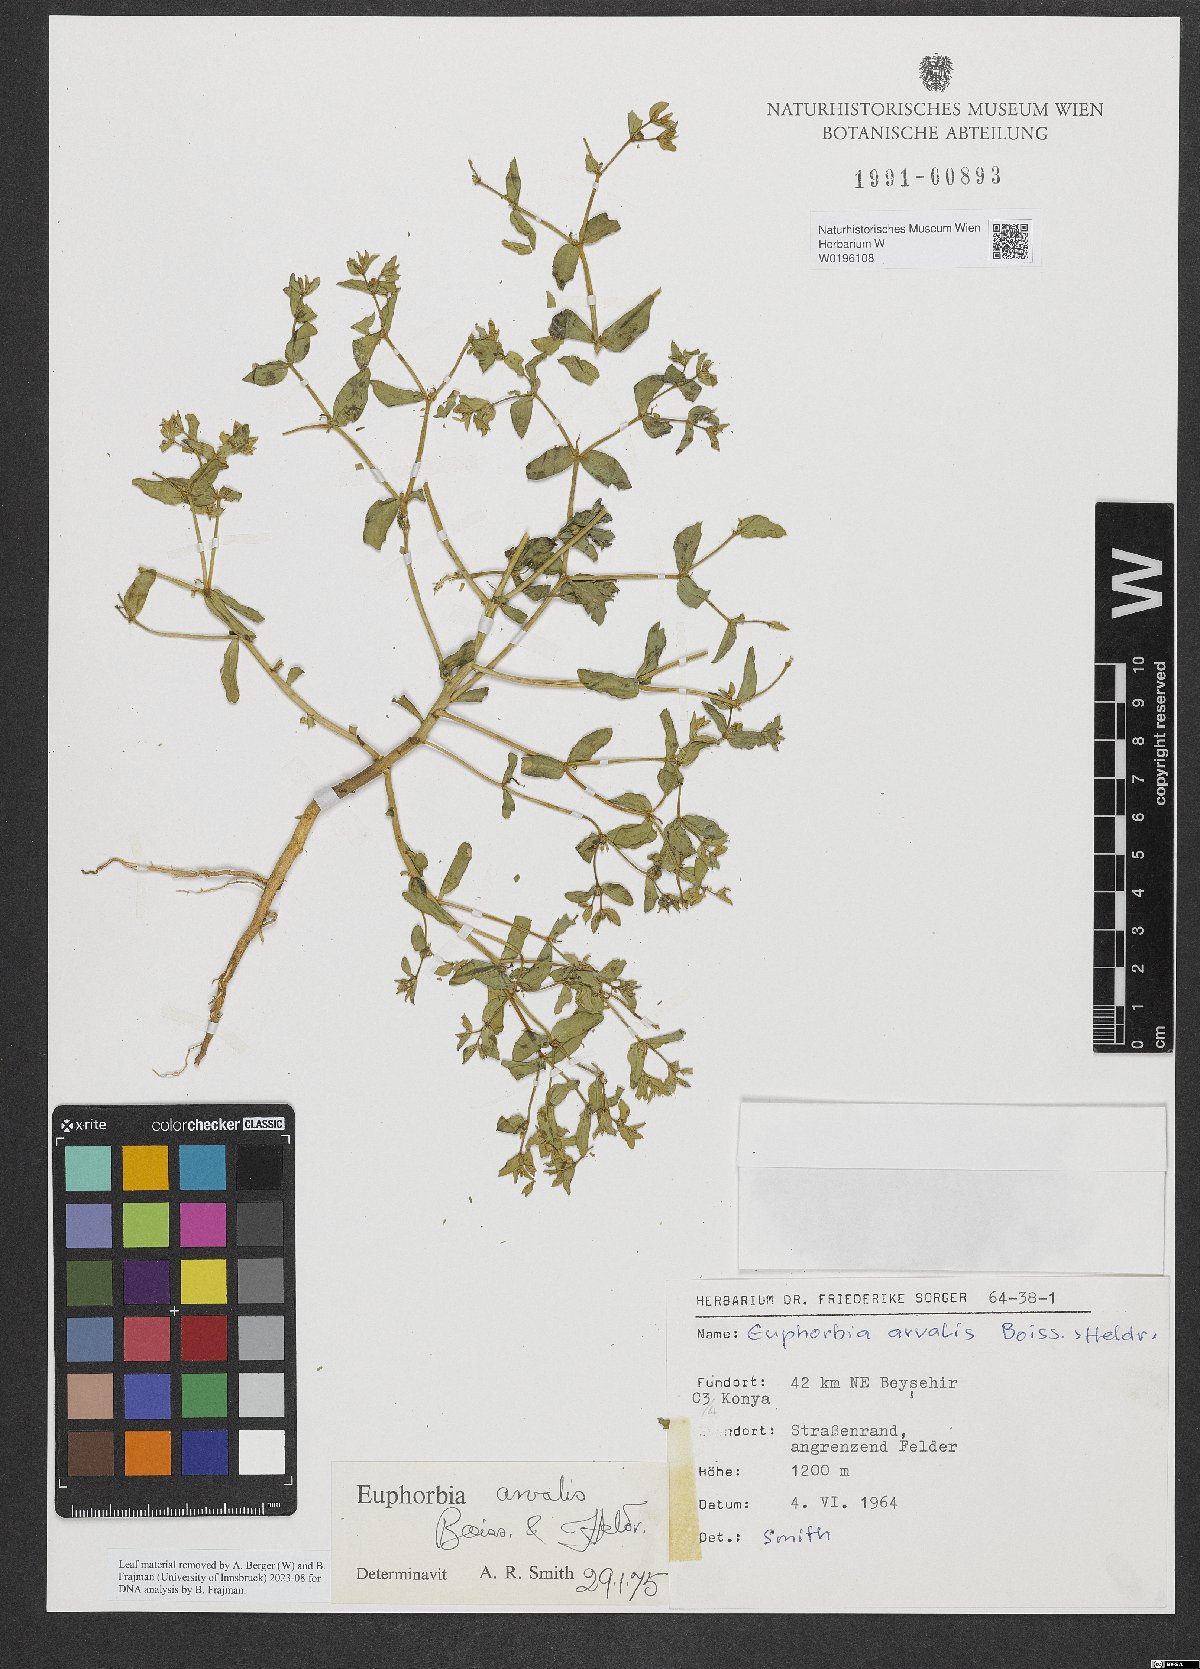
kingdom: Plantae
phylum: Tracheophyta
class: Magnoliopsida
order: Malpighiales
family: Euphorbiaceae
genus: Euphorbia
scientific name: Euphorbia arvalis
